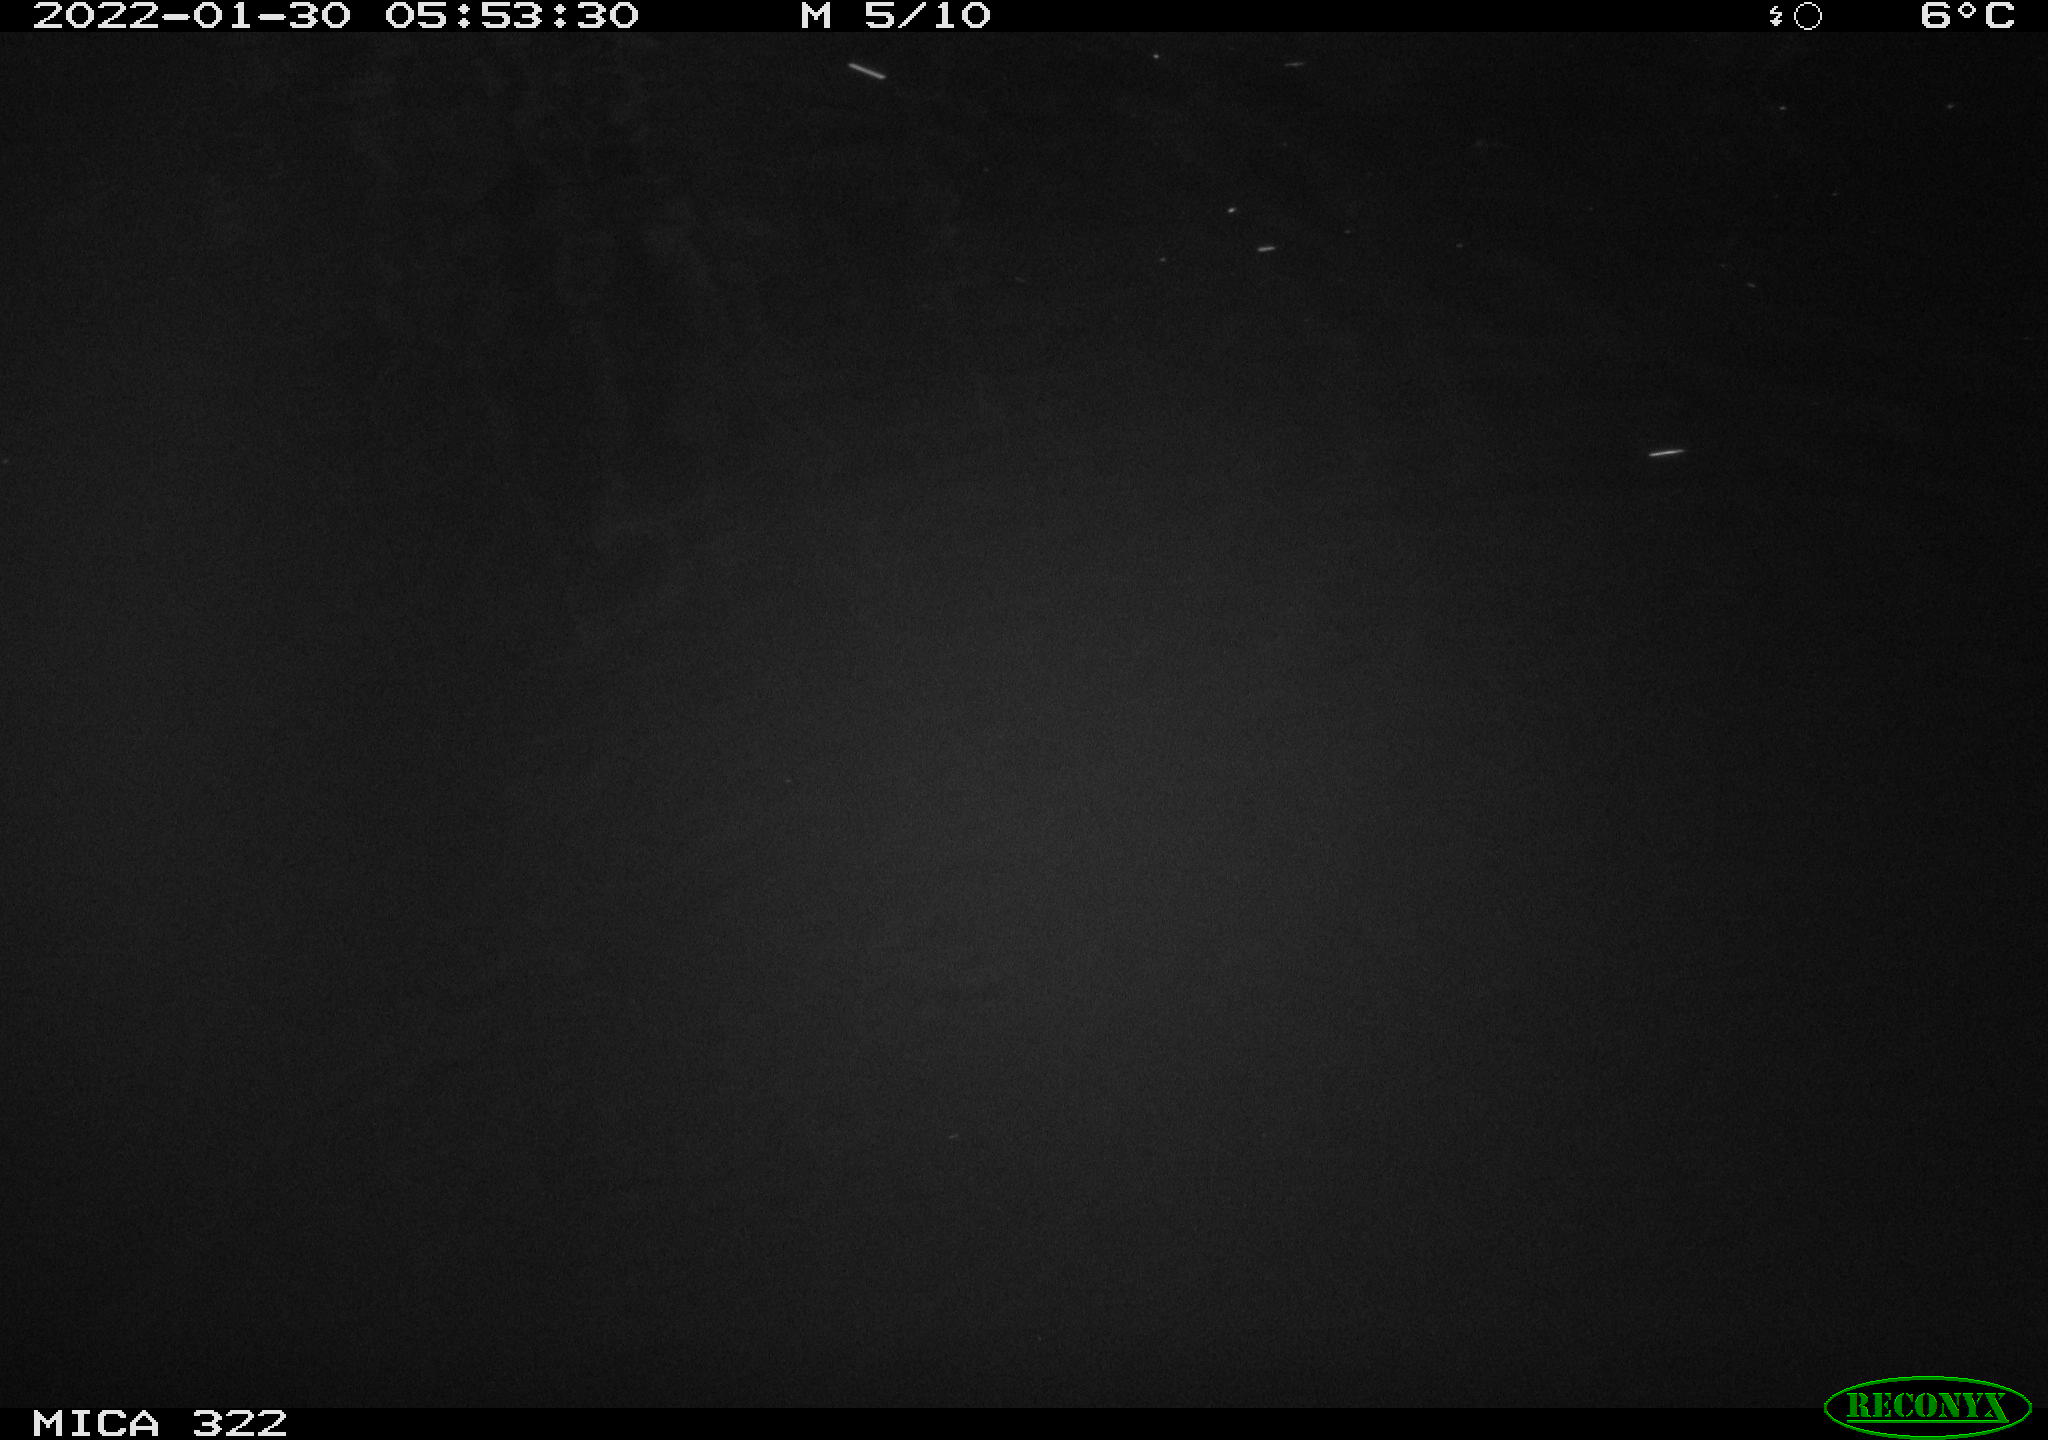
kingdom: Animalia
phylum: Chordata
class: Aves
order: Anseriformes
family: Anatidae
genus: Anas
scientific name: Anas
